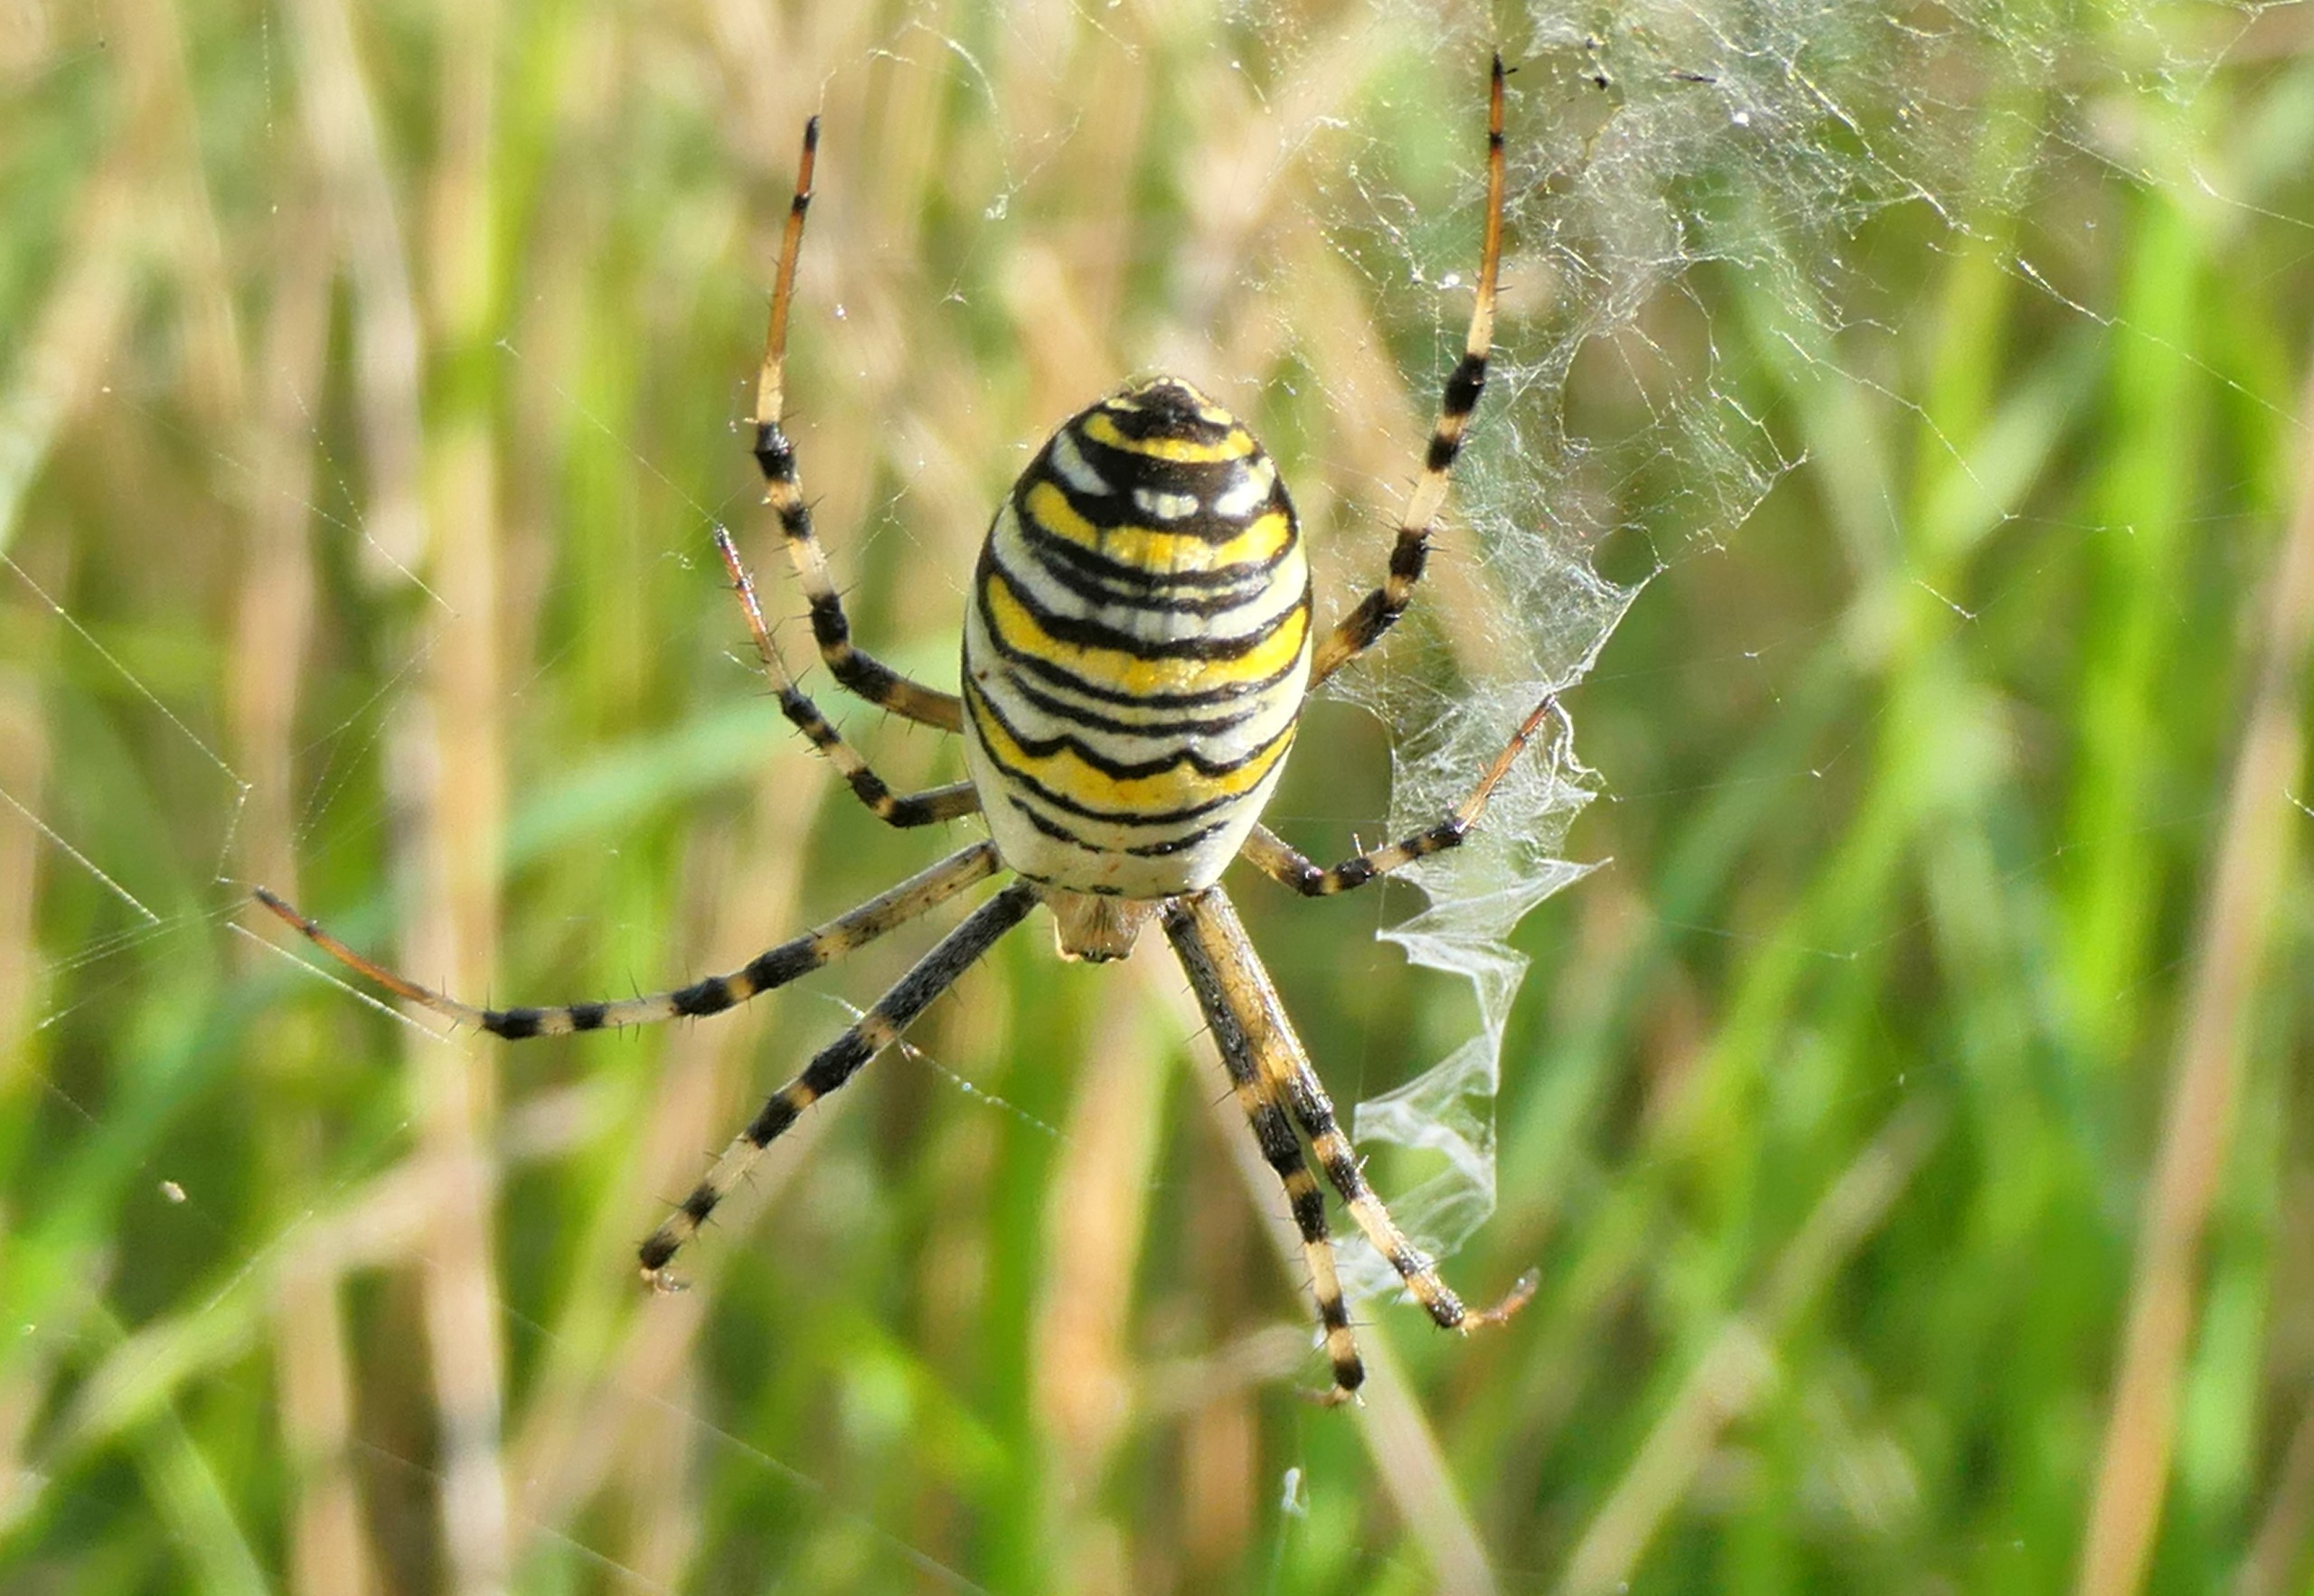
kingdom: Animalia
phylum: Arthropoda
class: Arachnida
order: Araneae
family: Araneidae
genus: Argiope
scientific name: Argiope bruennichi
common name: Hvepseedderkop
